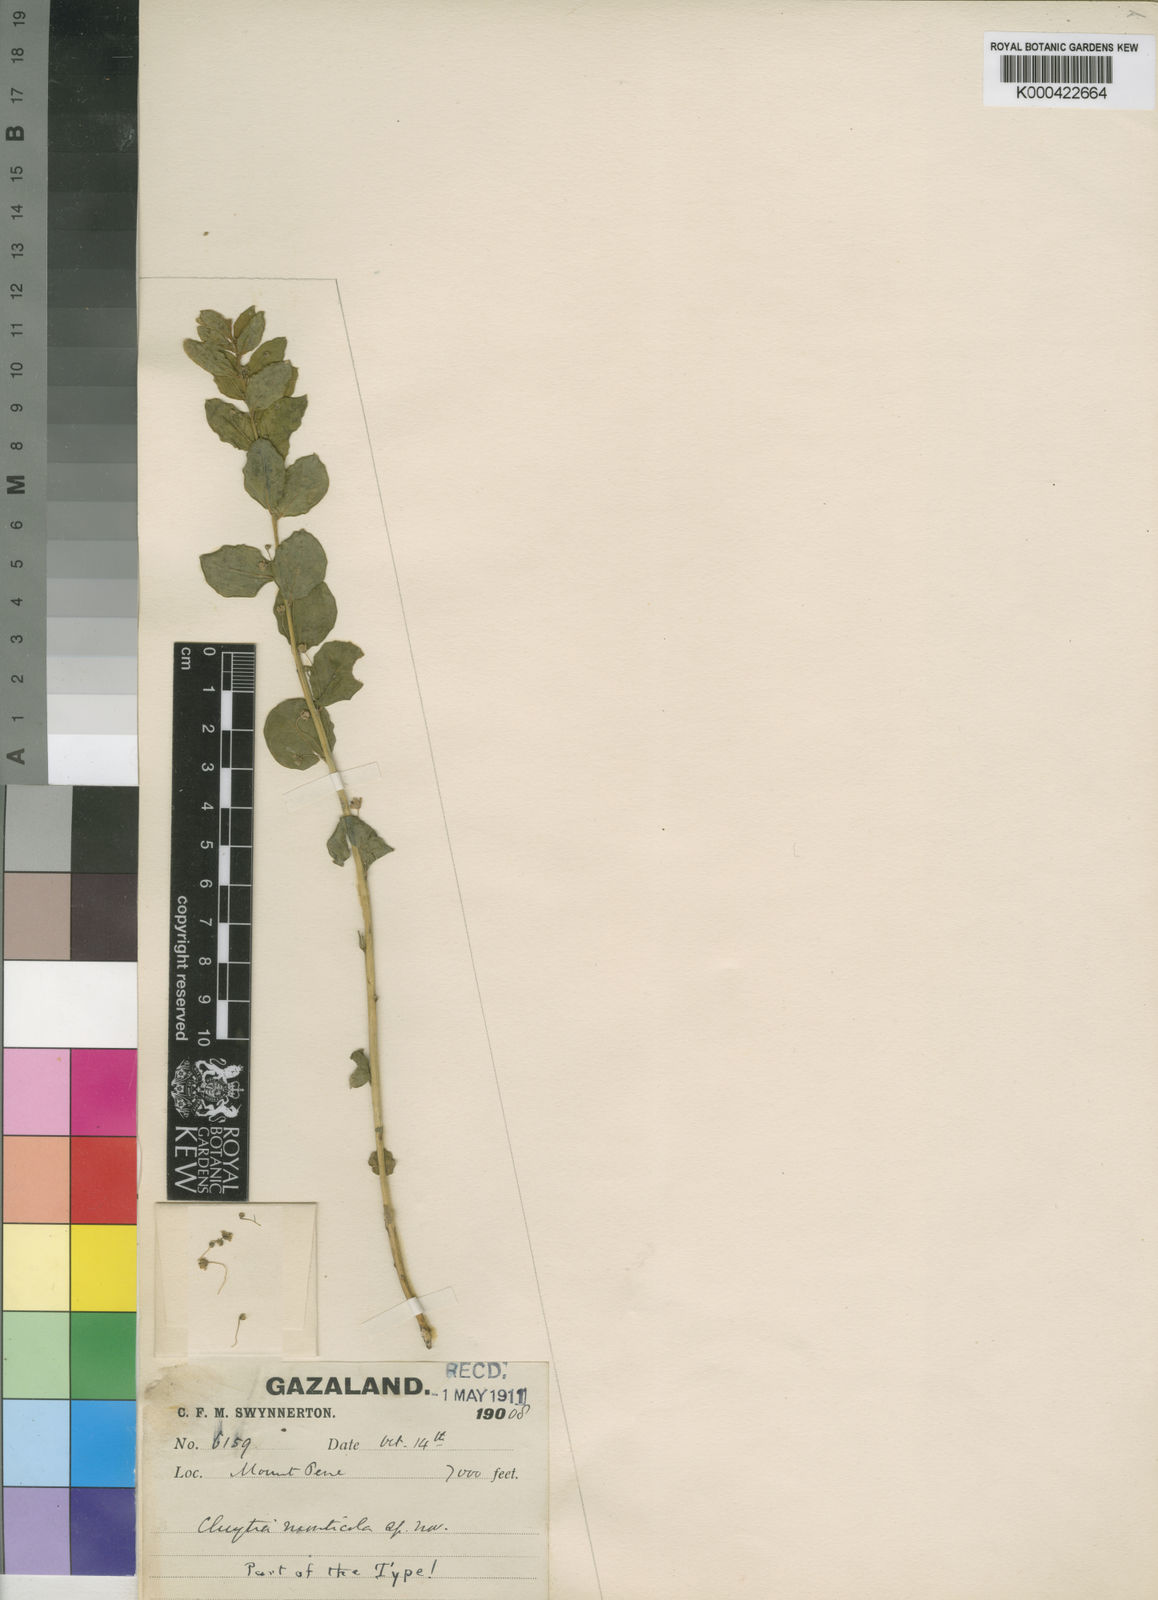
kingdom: Plantae
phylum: Tracheophyta
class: Magnoliopsida
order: Malpighiales
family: Peraceae
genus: Clutia
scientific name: Clutia monticola
